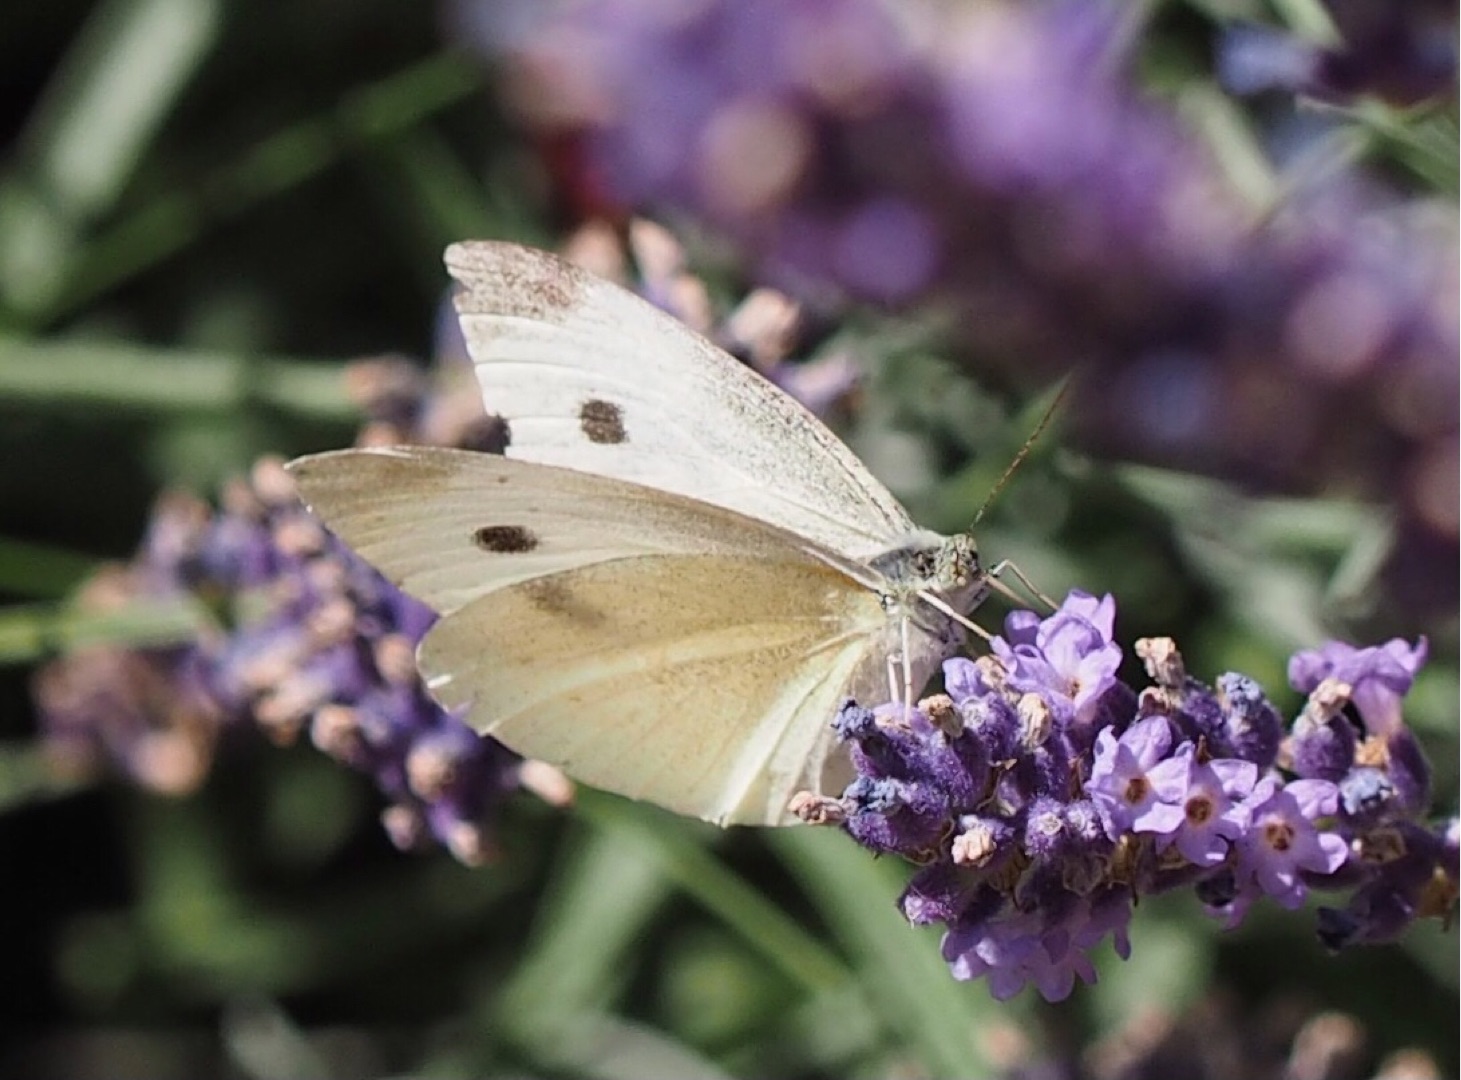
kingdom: Animalia
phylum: Arthropoda
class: Insecta
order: Lepidoptera
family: Pieridae
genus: Pieris
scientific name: Pieris rapae
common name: Lille kålsommerfugl
